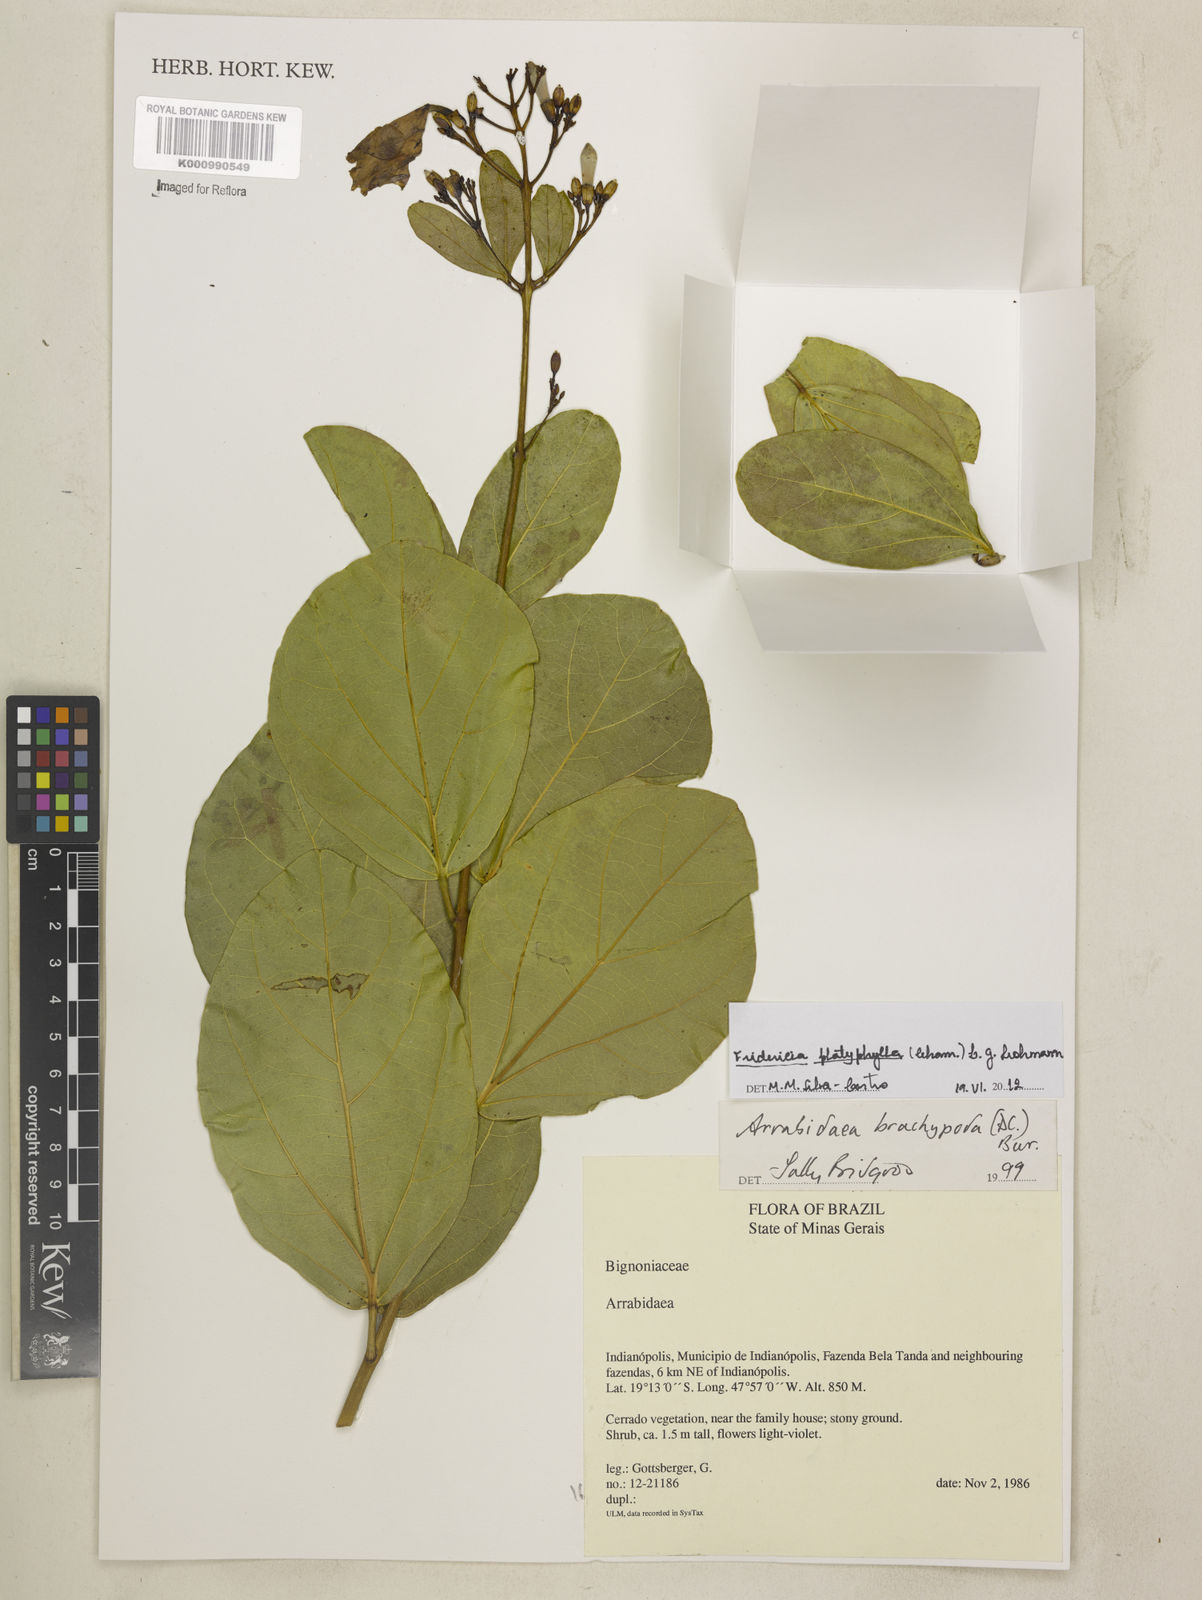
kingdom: Plantae
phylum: Tracheophyta
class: Magnoliopsida
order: Lamiales
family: Bignoniaceae
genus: Fridericia
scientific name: Fridericia platyphylla
